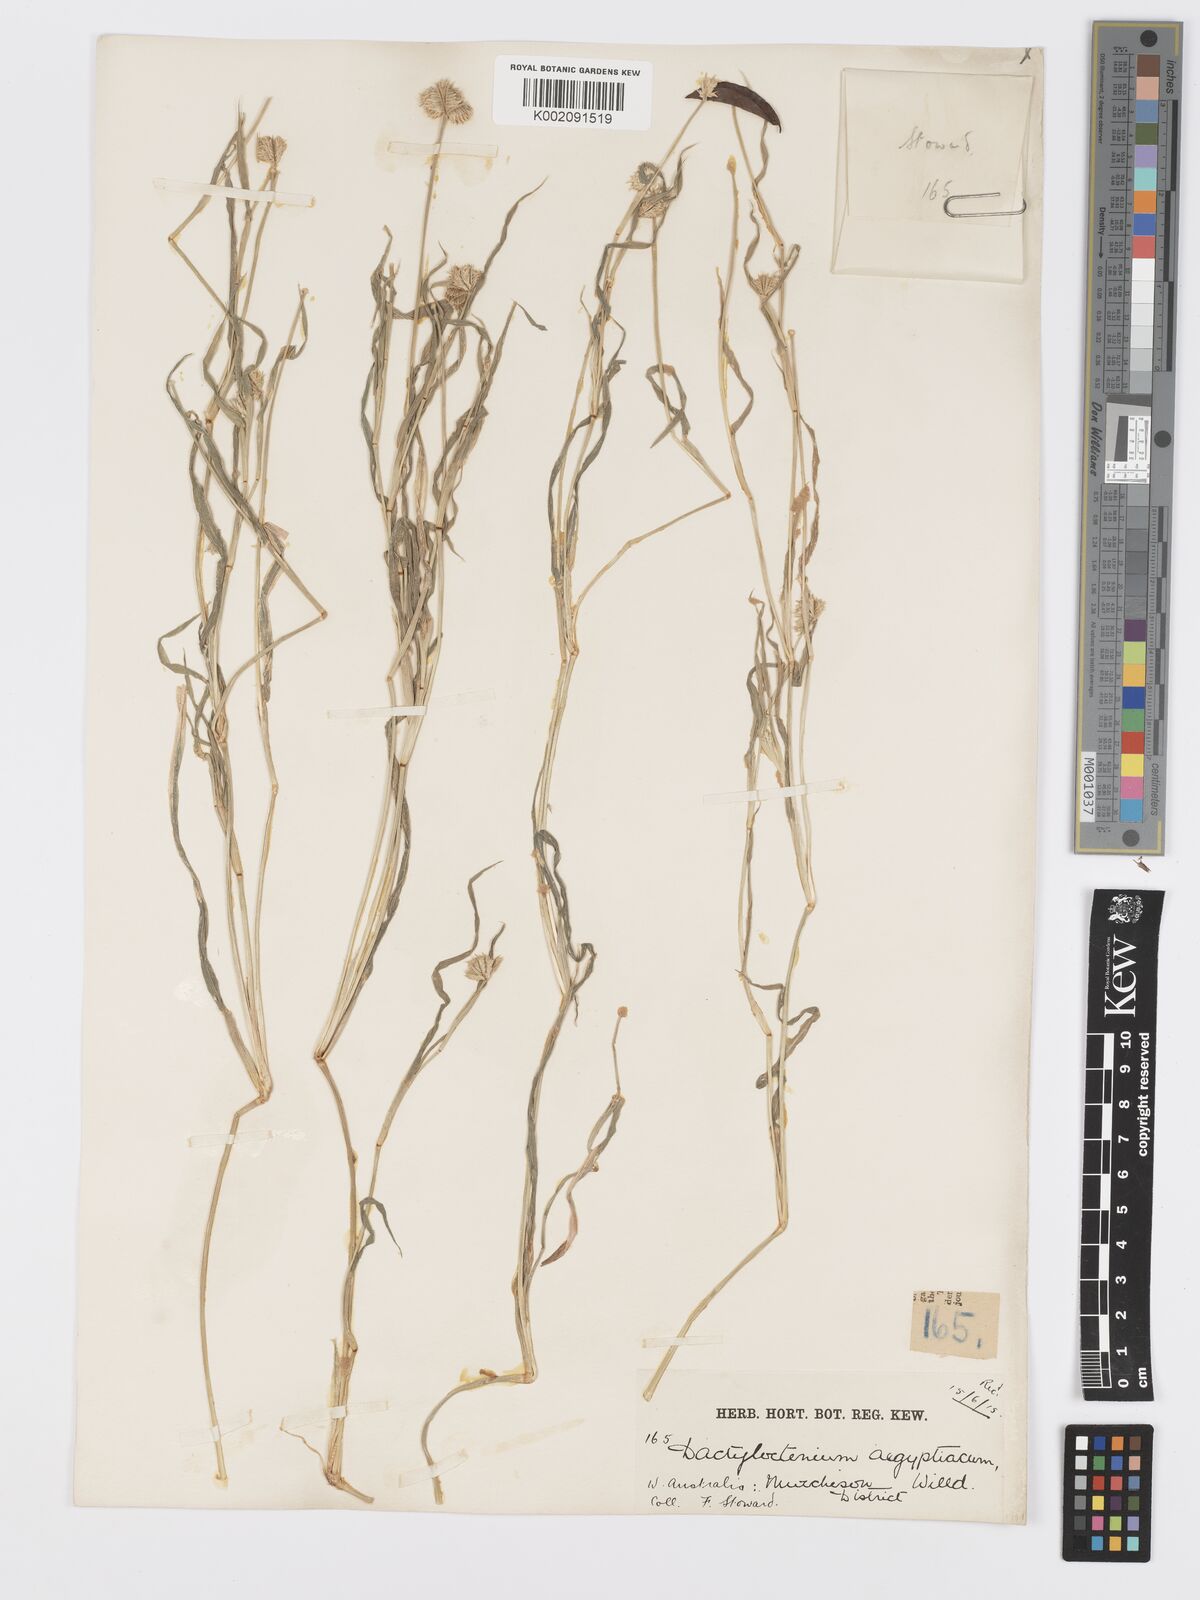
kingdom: Plantae
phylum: Tracheophyta
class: Liliopsida
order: Poales
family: Poaceae
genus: Dactyloctenium
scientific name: Dactyloctenium radulans
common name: Button-grass
